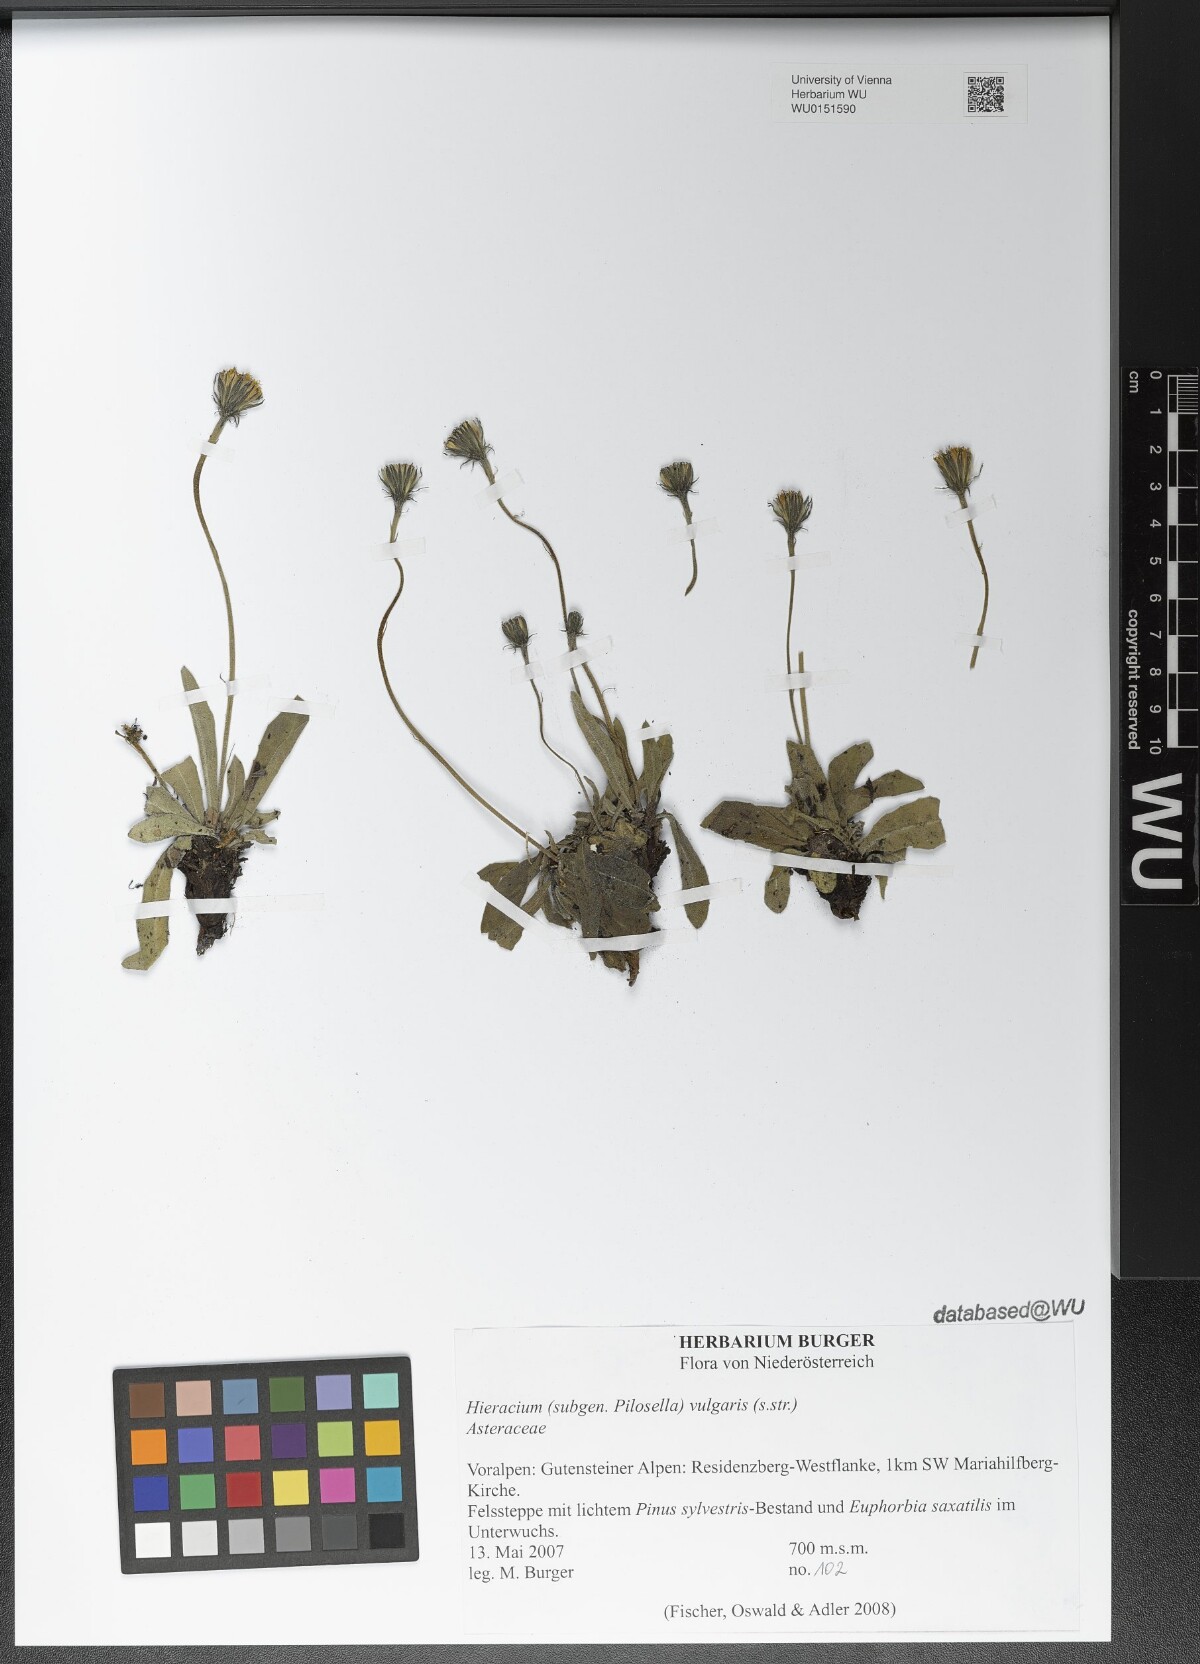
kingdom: Plantae
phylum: Tracheophyta
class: Magnoliopsida
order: Asterales
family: Asteraceae
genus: Hieracium
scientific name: Hieracium
